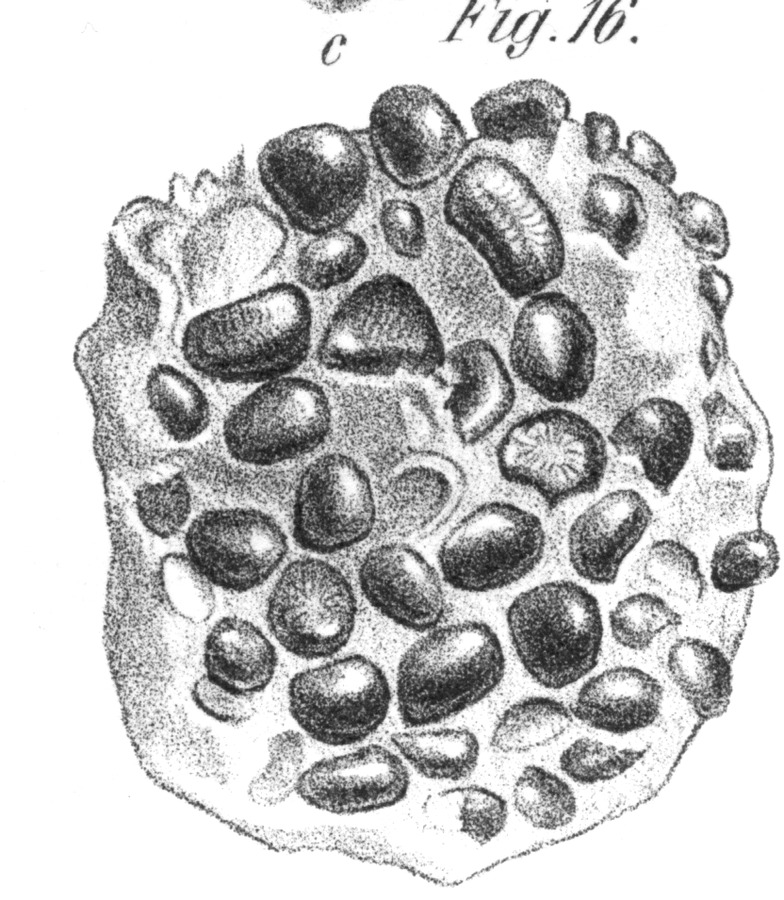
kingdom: Animalia
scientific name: Animalia
